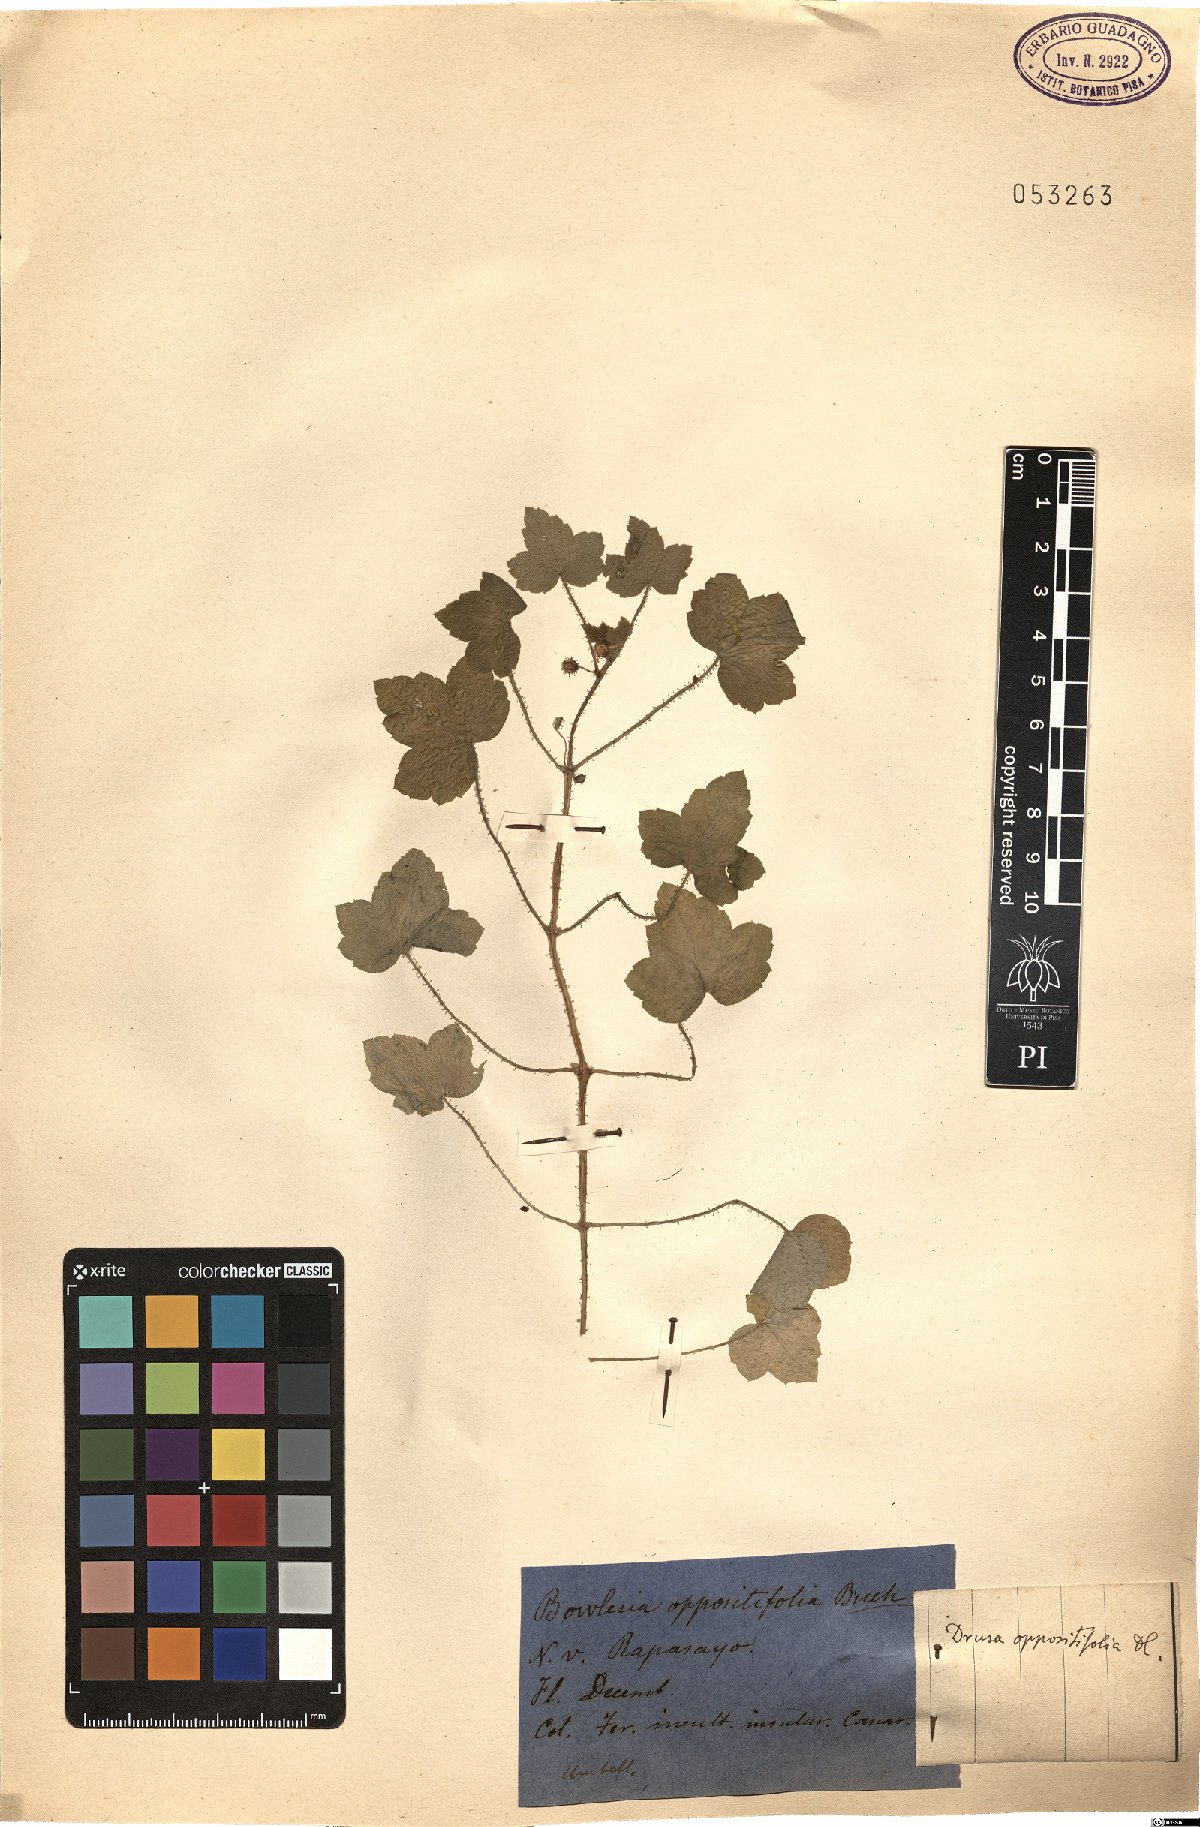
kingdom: Plantae
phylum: Tracheophyta
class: Magnoliopsida
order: Apiales
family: Apiaceae
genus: Drusa
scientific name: Drusa glandulosa
